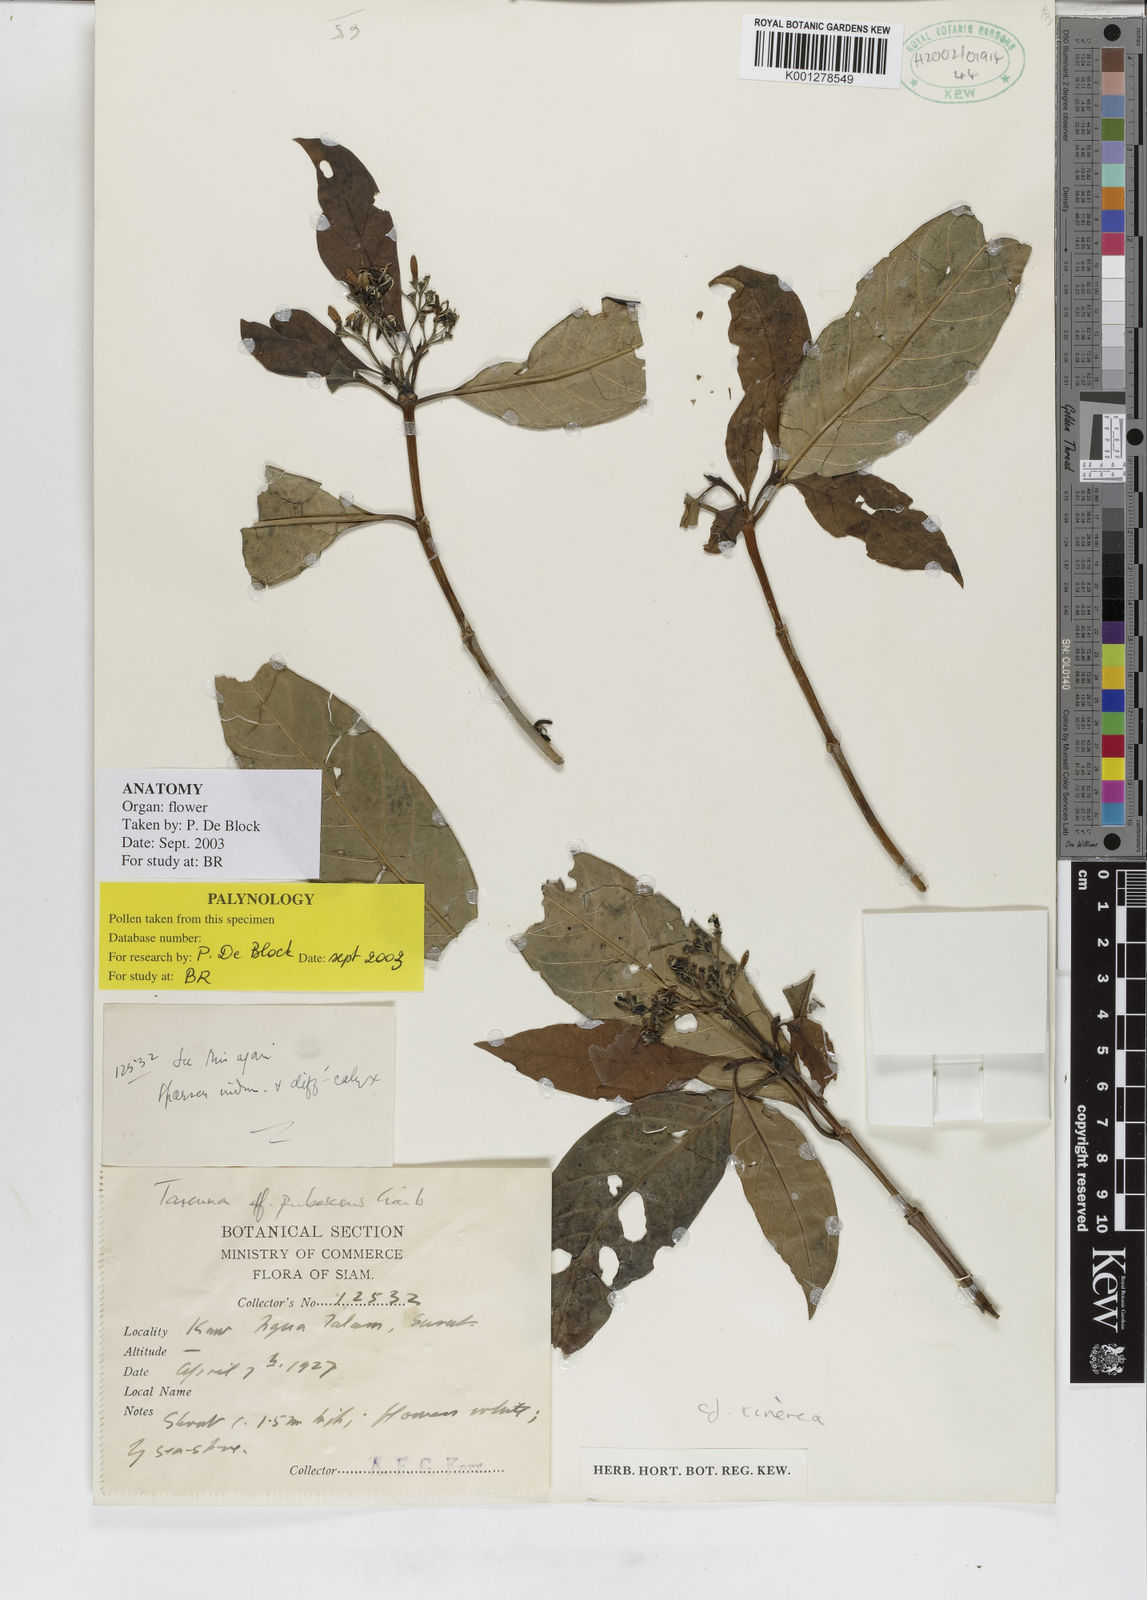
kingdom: Plantae
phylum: Tracheophyta
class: Magnoliopsida
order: Gentianales
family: Rubiaceae
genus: Tarenna
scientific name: Tarenna cinerea
